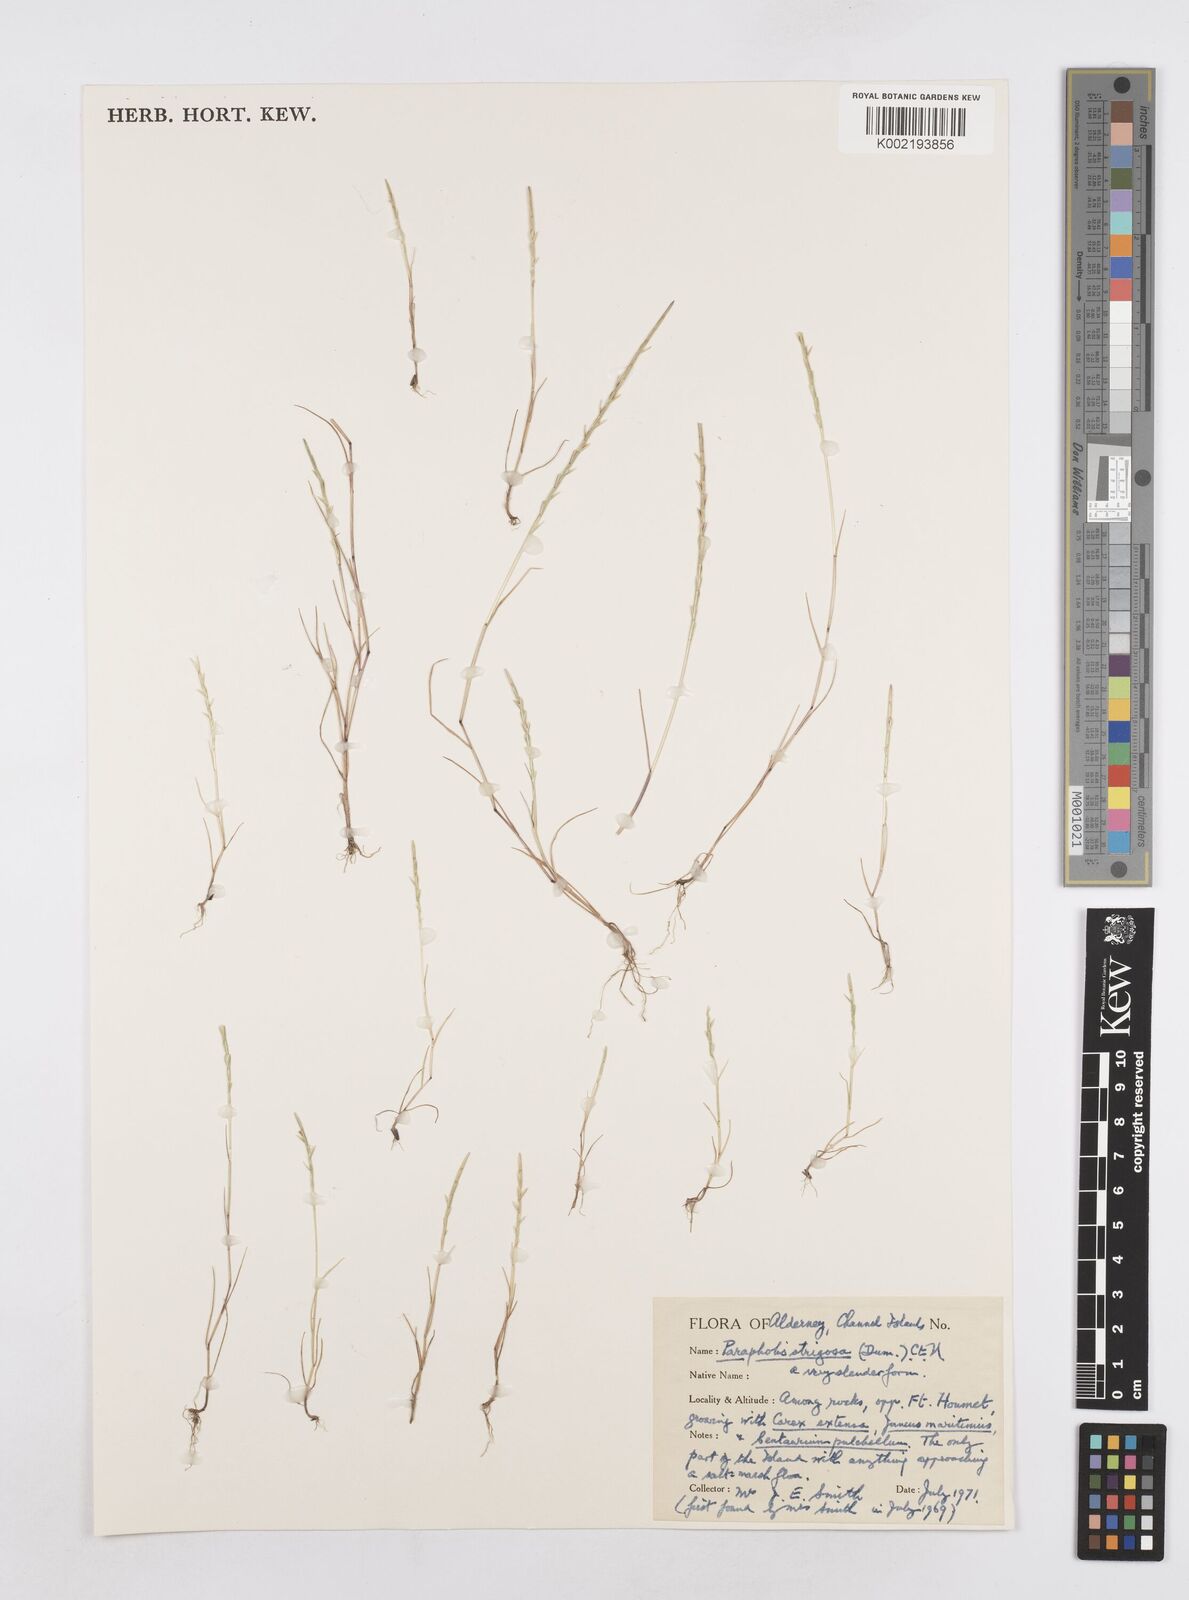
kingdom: Plantae
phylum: Tracheophyta
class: Liliopsida
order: Poales
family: Poaceae
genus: Parapholis
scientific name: Parapholis strigosa
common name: Hard-grass
